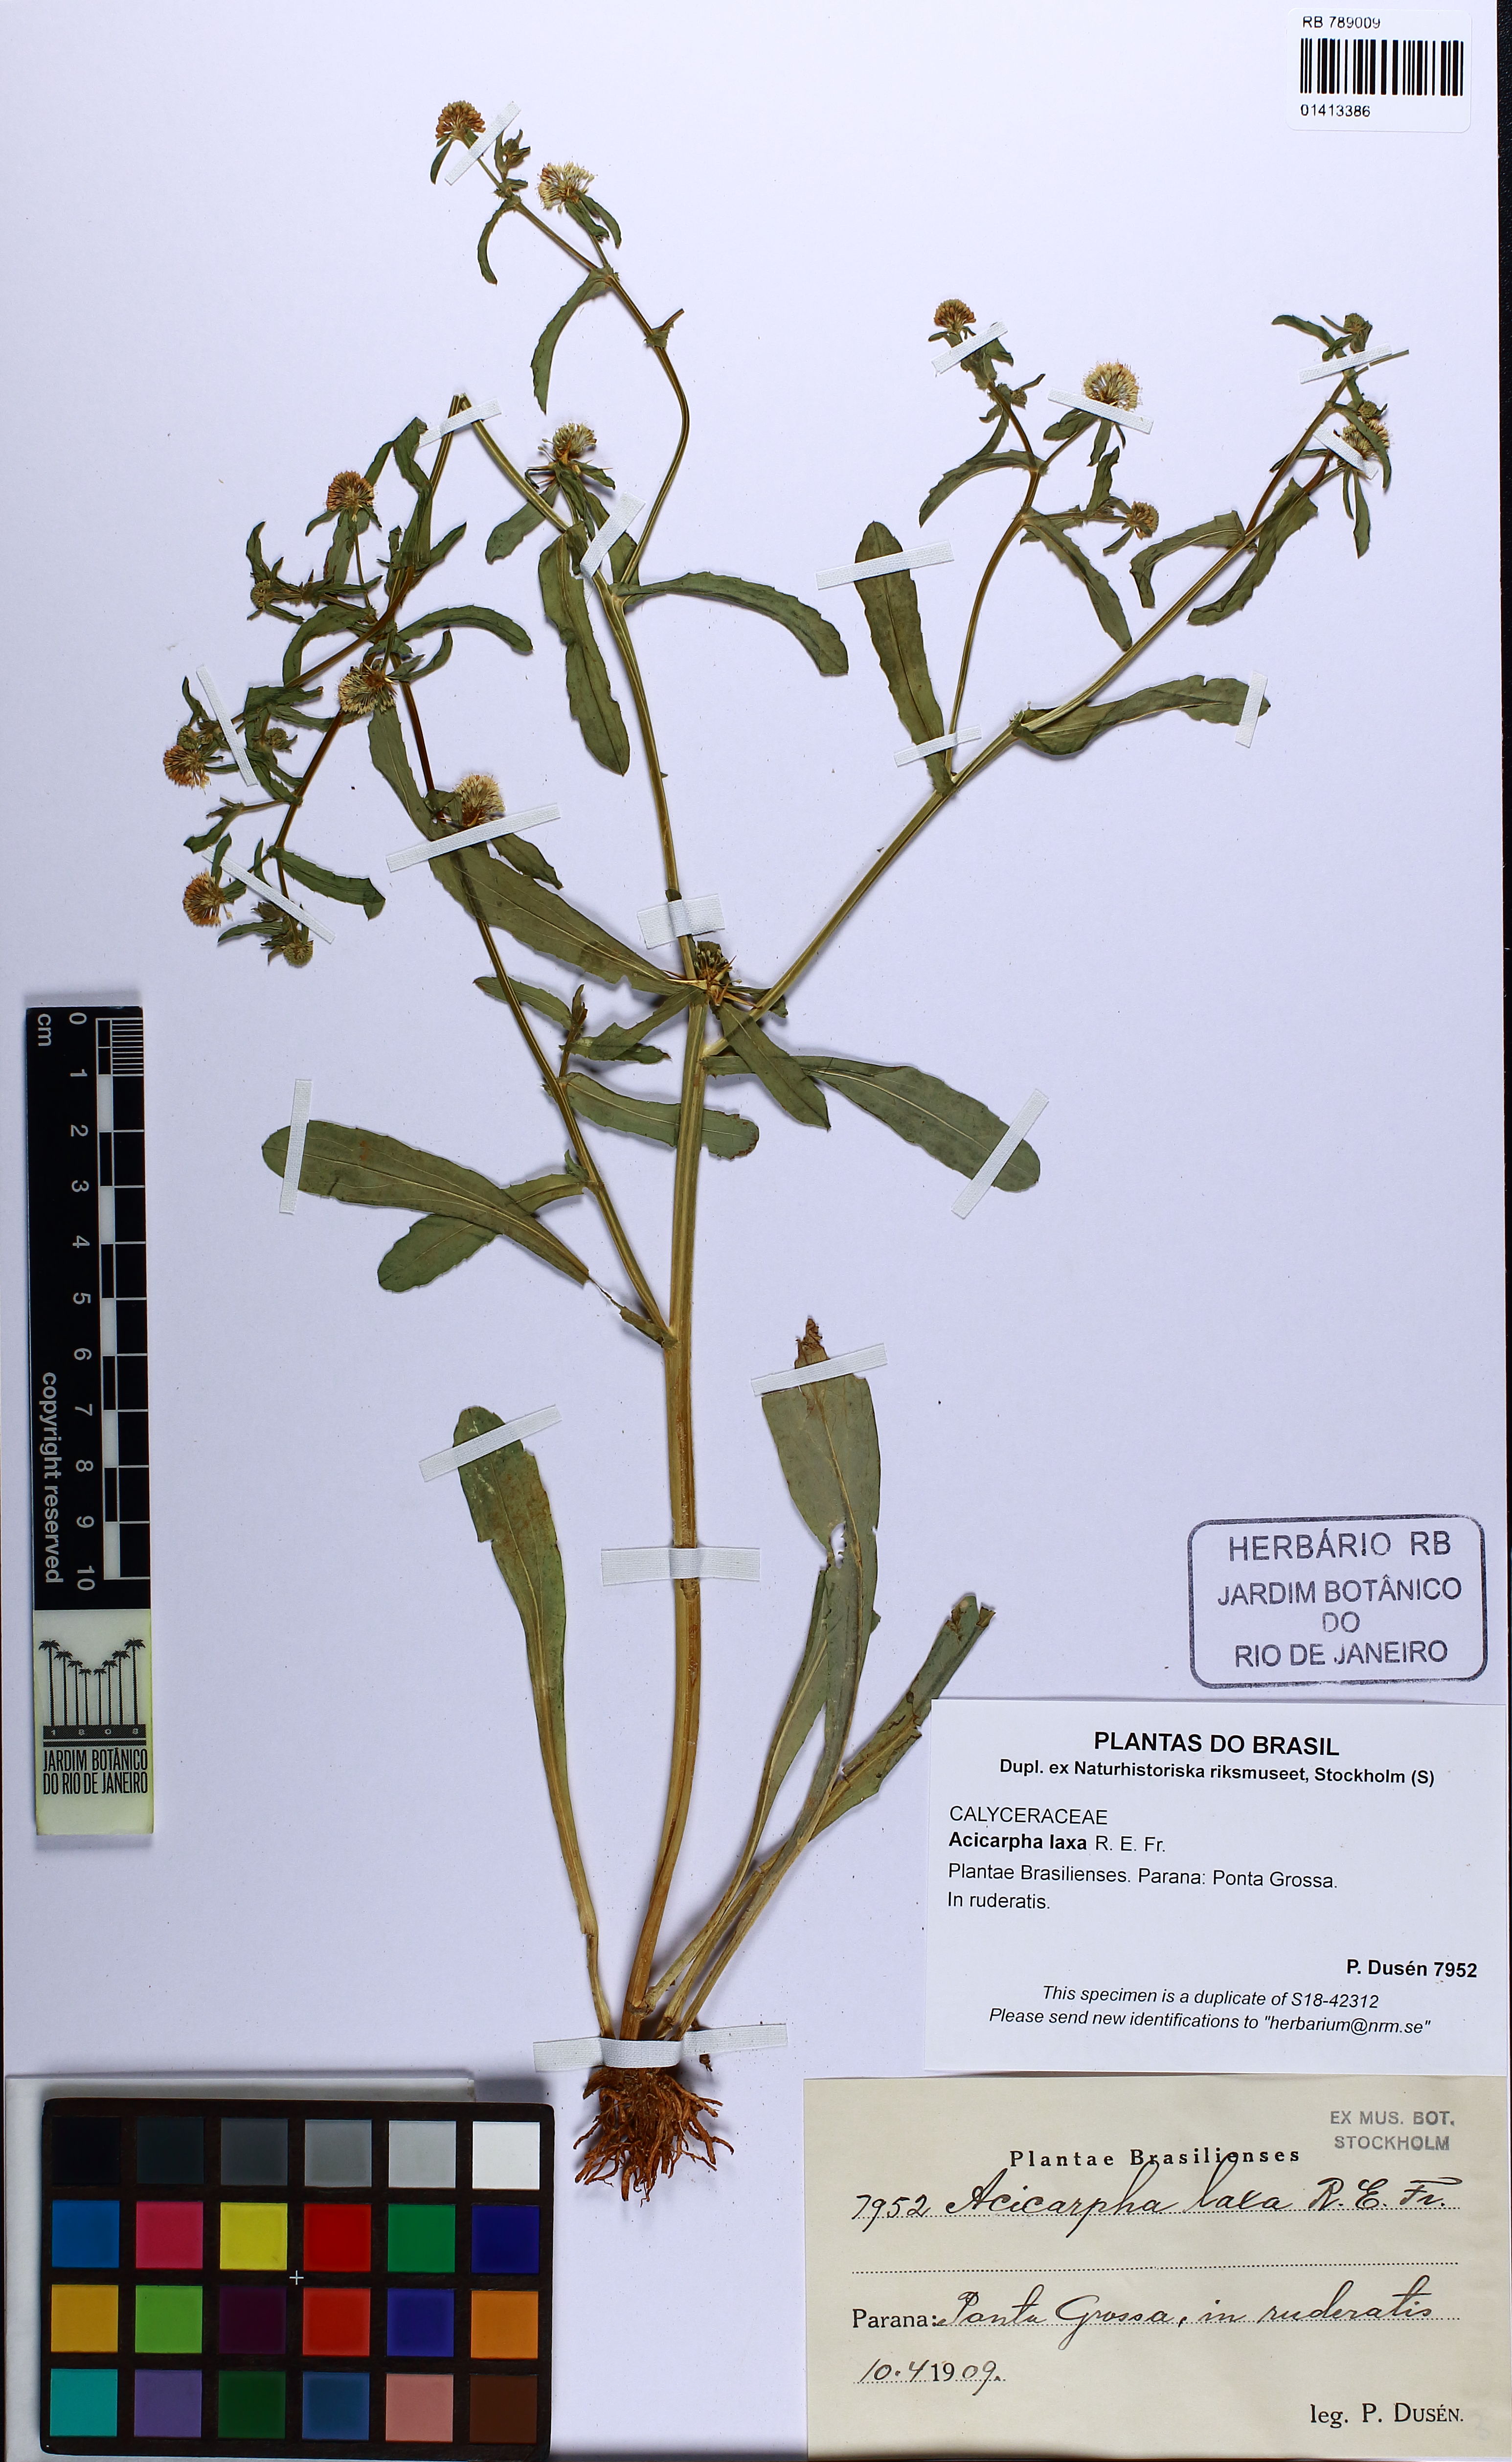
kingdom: Plantae
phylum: Tracheophyta
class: Magnoliopsida
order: Asterales
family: Calyceraceae
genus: Acicarpha
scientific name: Acicarpha tribuloides
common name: Madam gorgon
